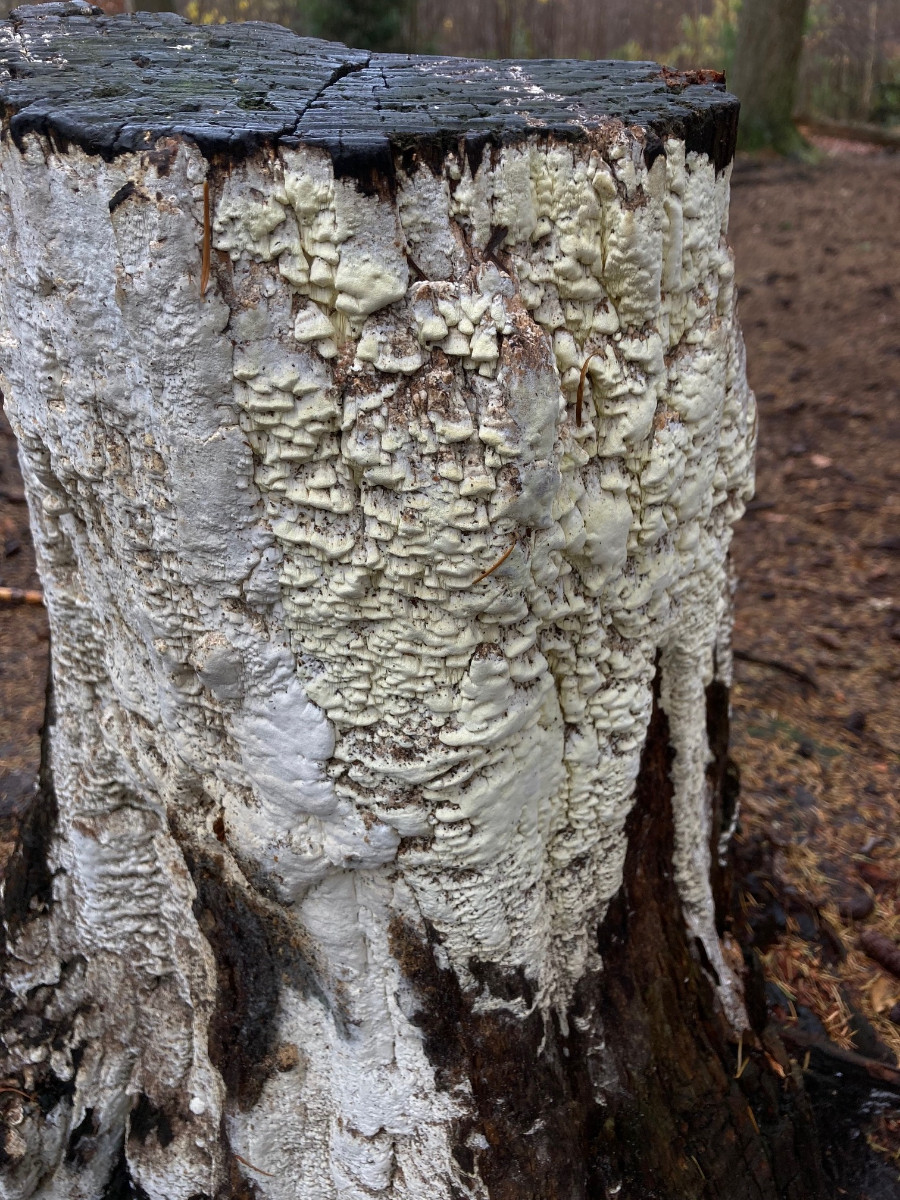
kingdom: Fungi
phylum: Basidiomycota
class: Agaricomycetes
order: Polyporales
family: Fomitopsidaceae
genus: Daedalea
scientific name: Daedalea xantha
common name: gul sejporesvamp
